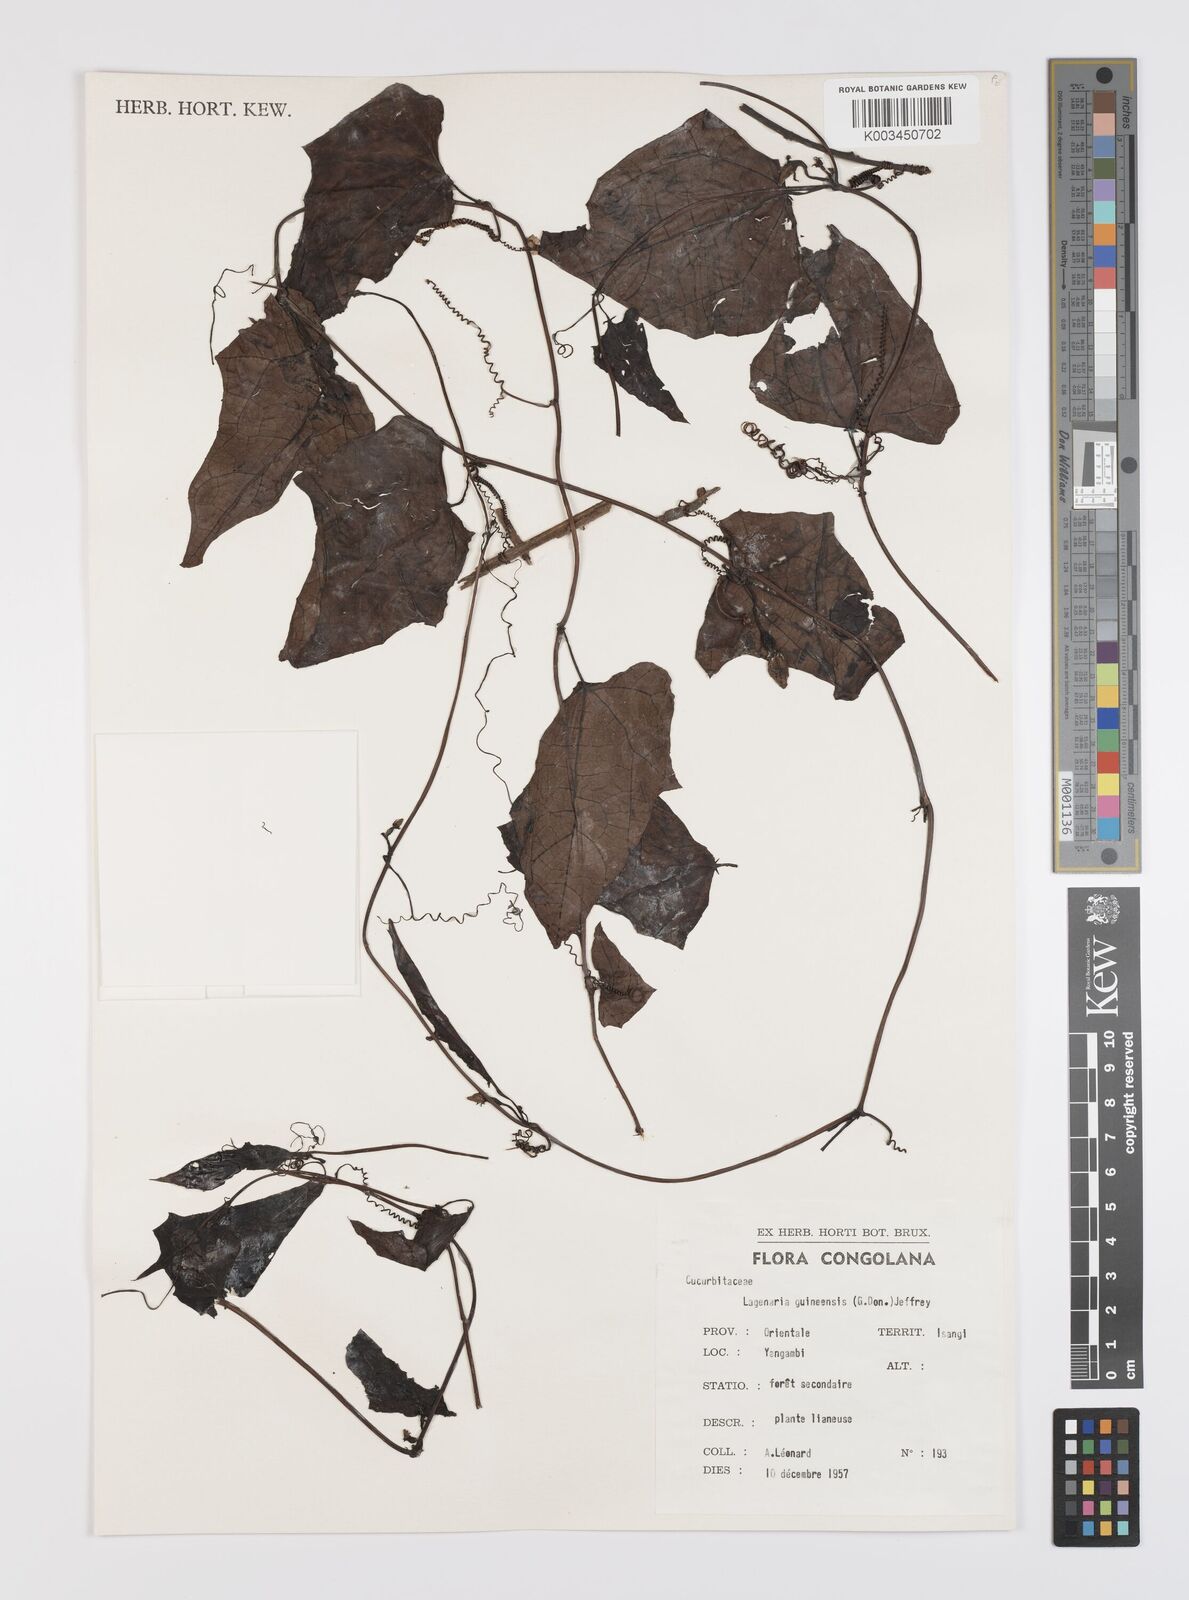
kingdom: Plantae
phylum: Tracheophyta
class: Magnoliopsida
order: Cucurbitales
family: Cucurbitaceae
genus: Lagenaria
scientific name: Lagenaria guineensis
